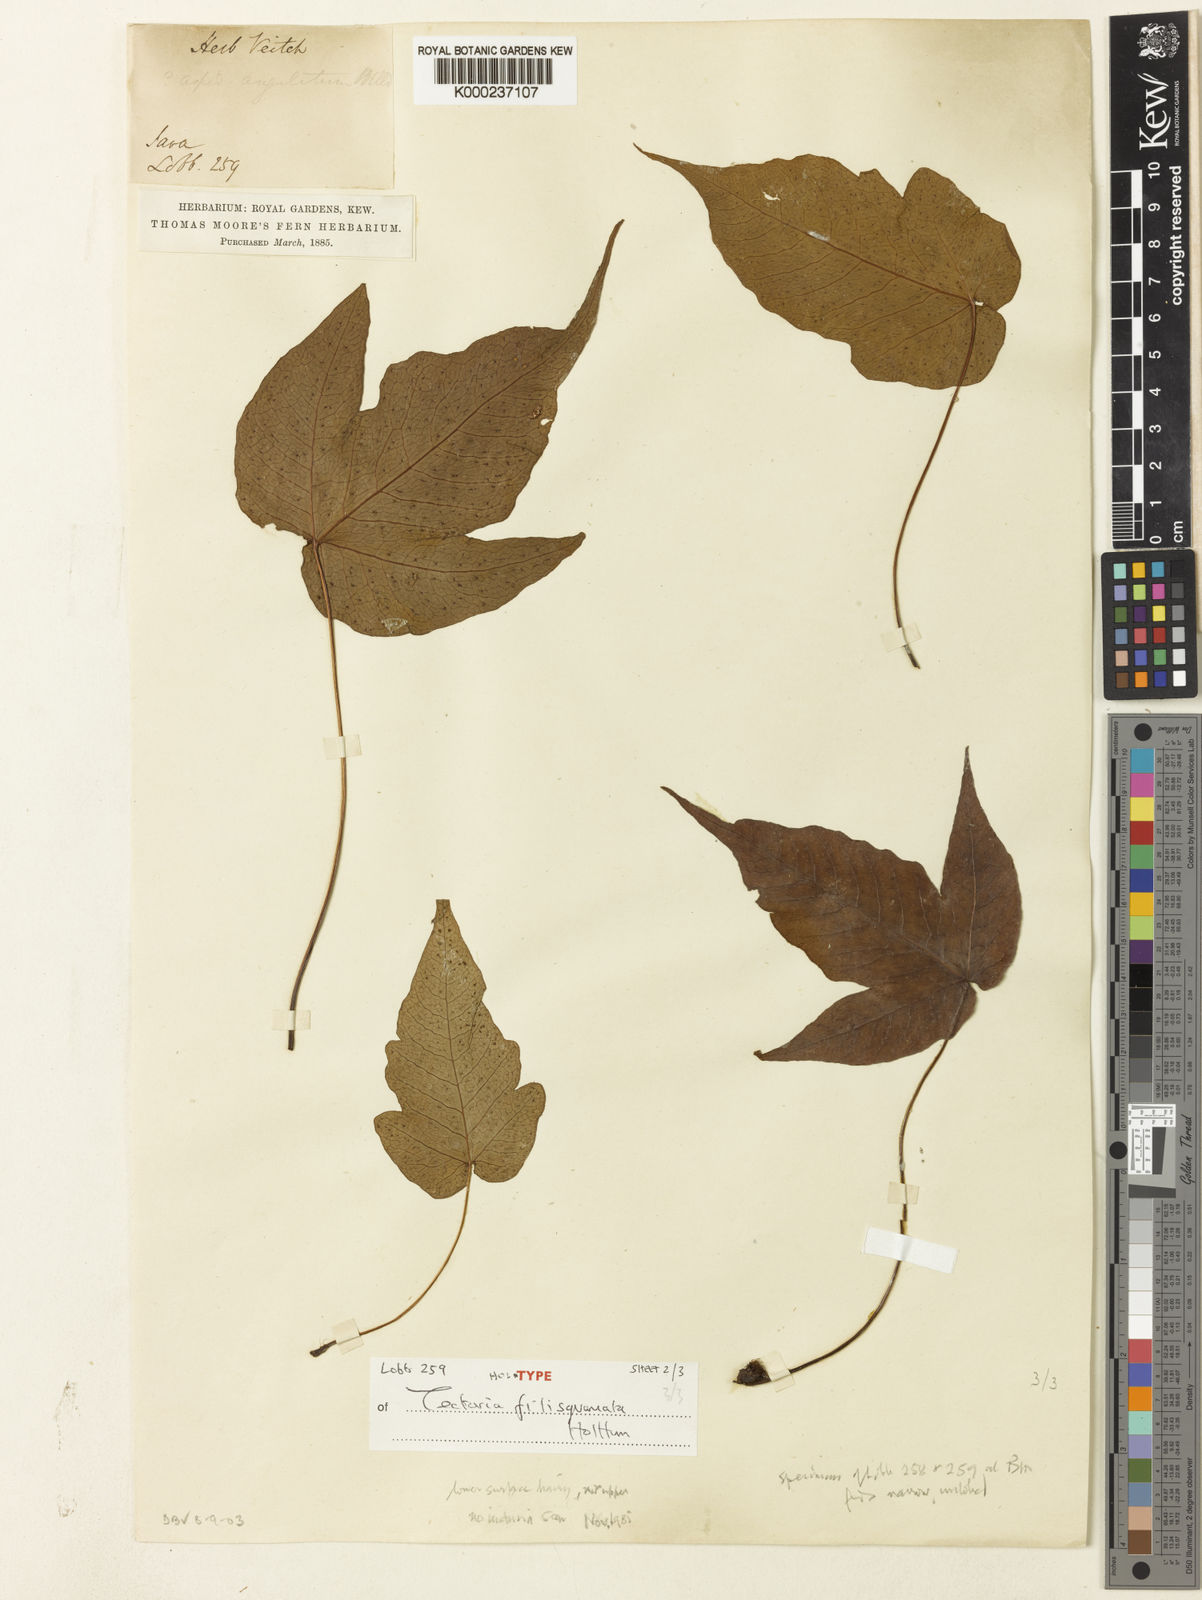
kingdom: Plantae
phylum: Tracheophyta
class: Polypodiopsida
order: Polypodiales
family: Tectariaceae
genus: Tectaria
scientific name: Tectaria filisquamata
